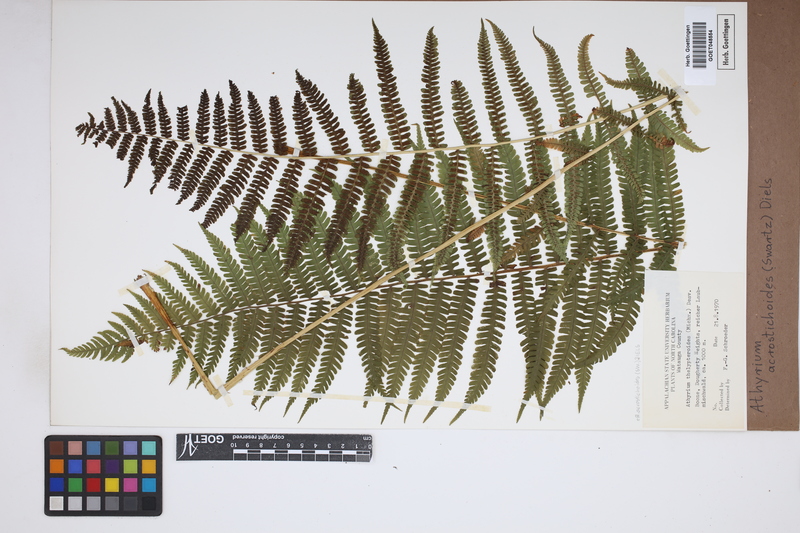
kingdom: Plantae
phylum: Tracheophyta
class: Polypodiopsida
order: Polypodiales
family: Athyriaceae
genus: Deparia
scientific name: Deparia acrostichoides
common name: Silver false spleenwort
